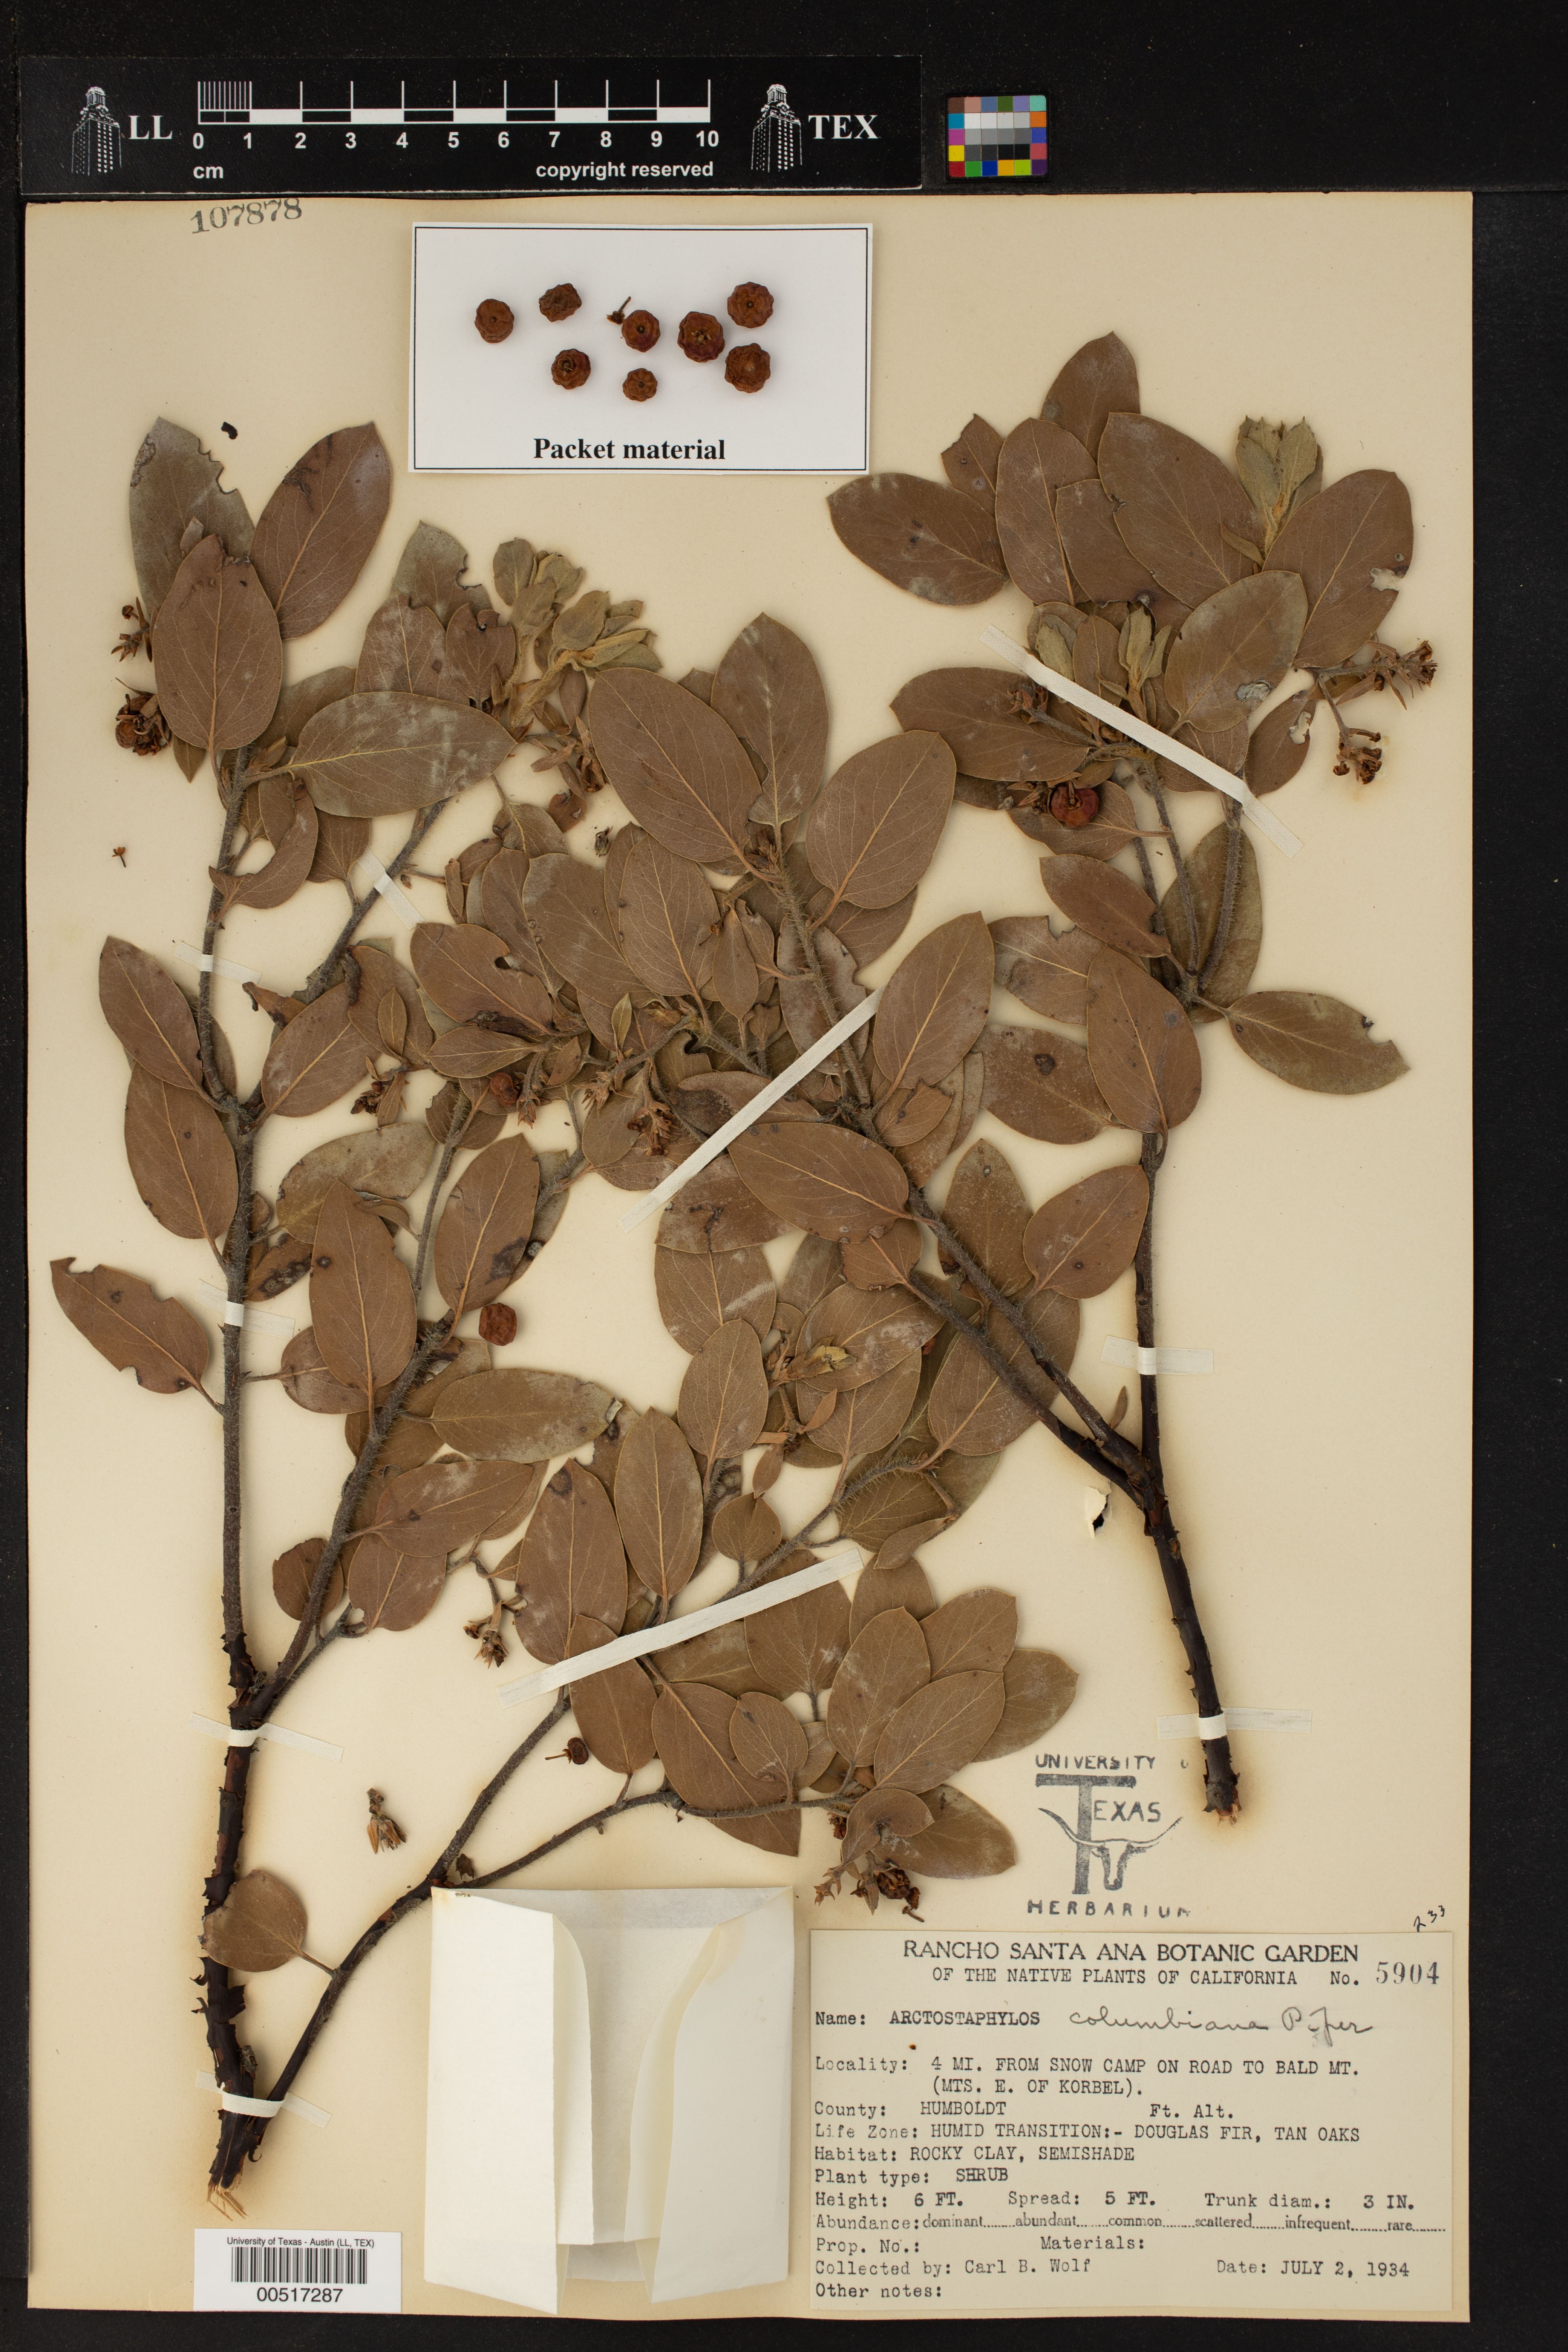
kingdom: Plantae
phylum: Tracheophyta
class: Magnoliopsida
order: Ericales
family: Ericaceae
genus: Arctostaphylos
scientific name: Arctostaphylos columbiana
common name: Bristly bearberry
